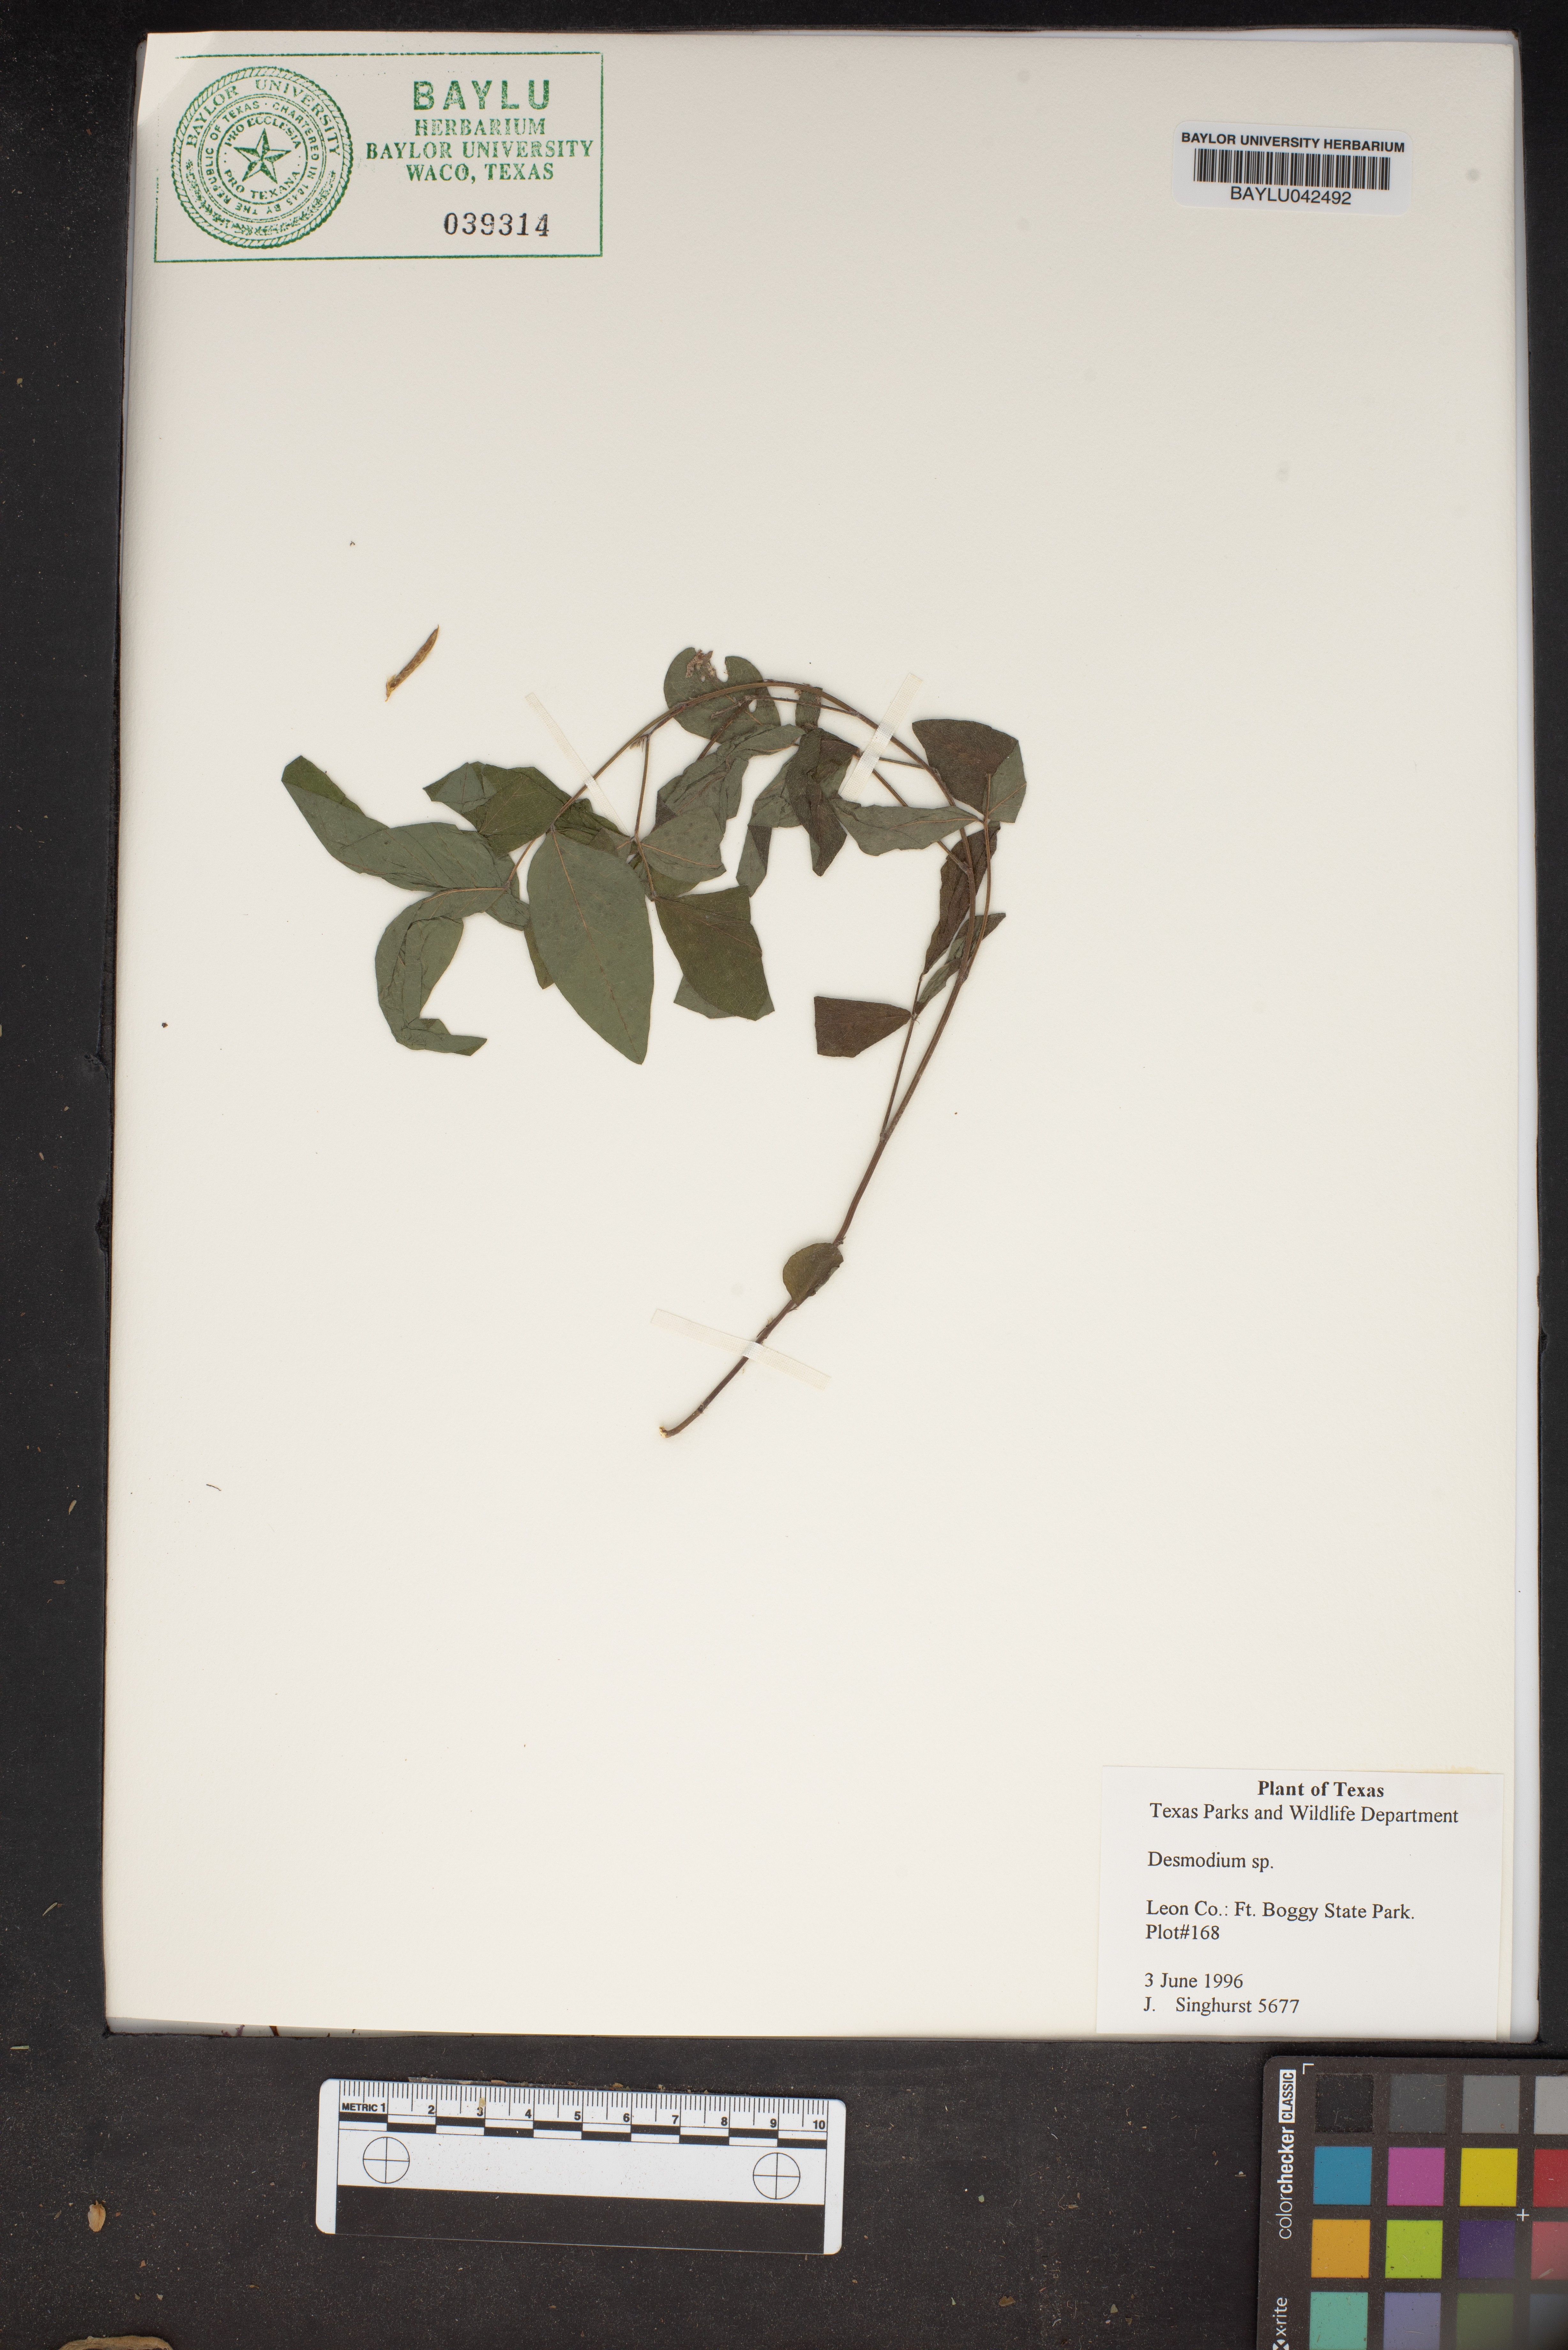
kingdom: Plantae
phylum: Tracheophyta
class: Magnoliopsida
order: Fabales
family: Fabaceae
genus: Desmodium
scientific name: Desmodium
